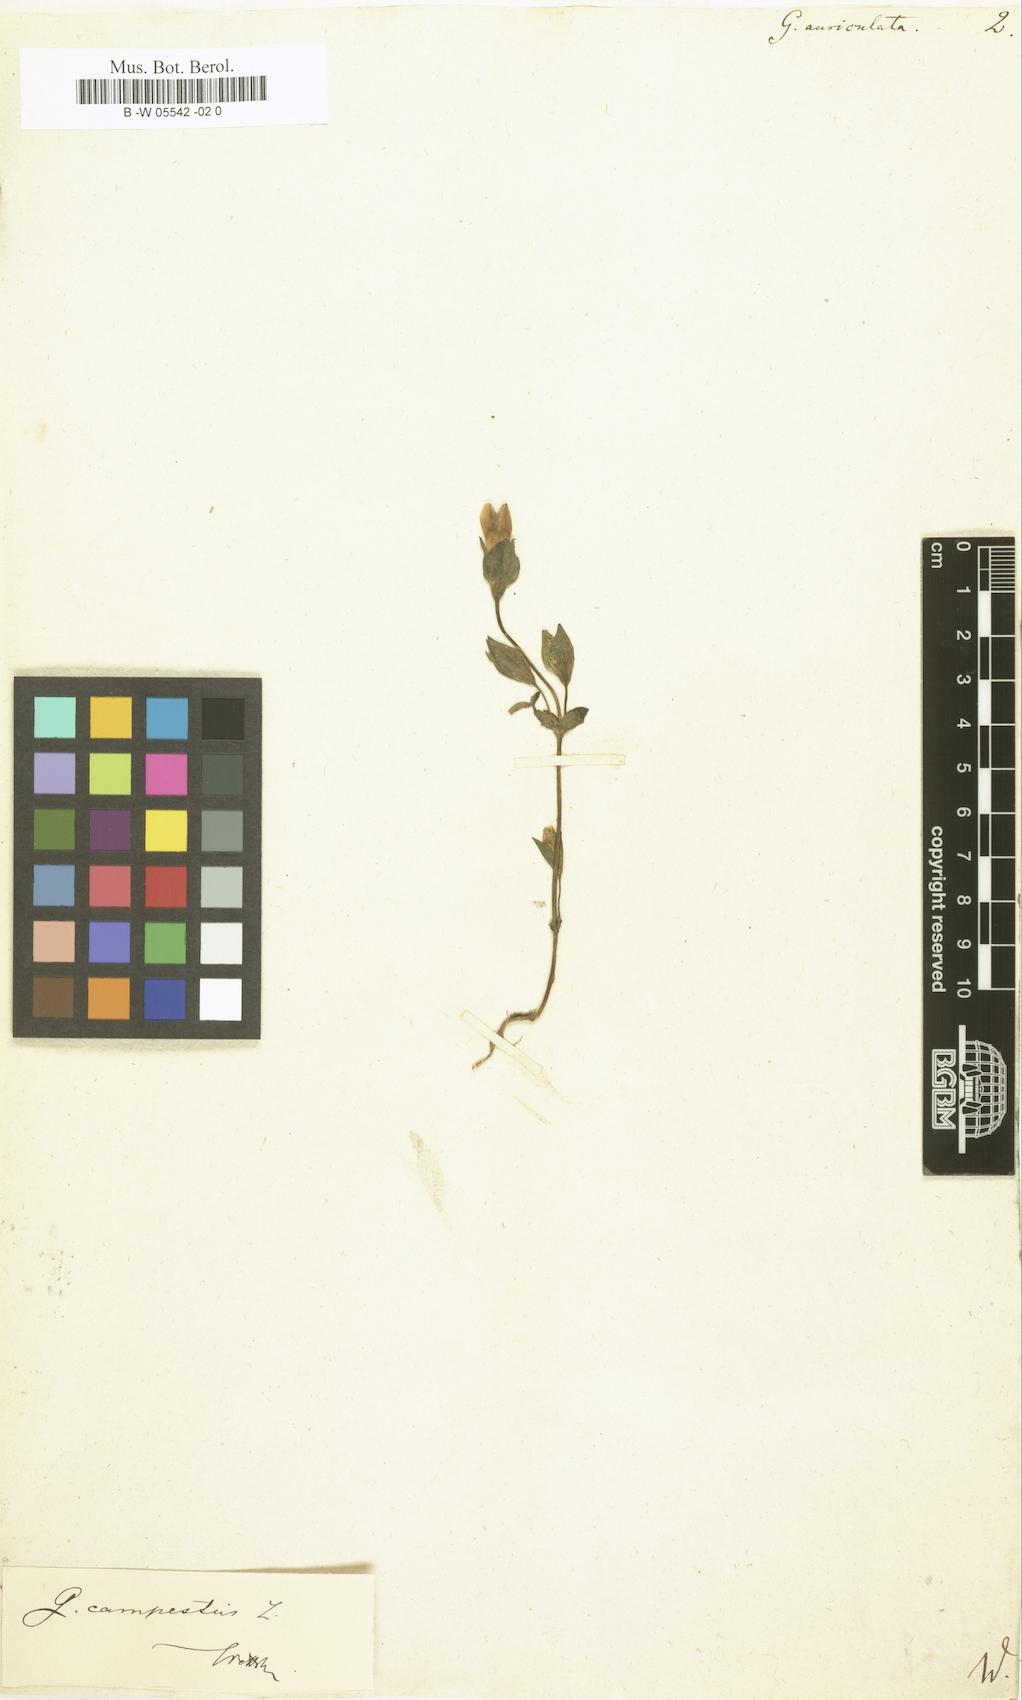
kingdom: Plantae
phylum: Tracheophyta
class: Magnoliopsida
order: Gentianales
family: Gentianaceae
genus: Gentianella
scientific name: Gentianella auriculata
